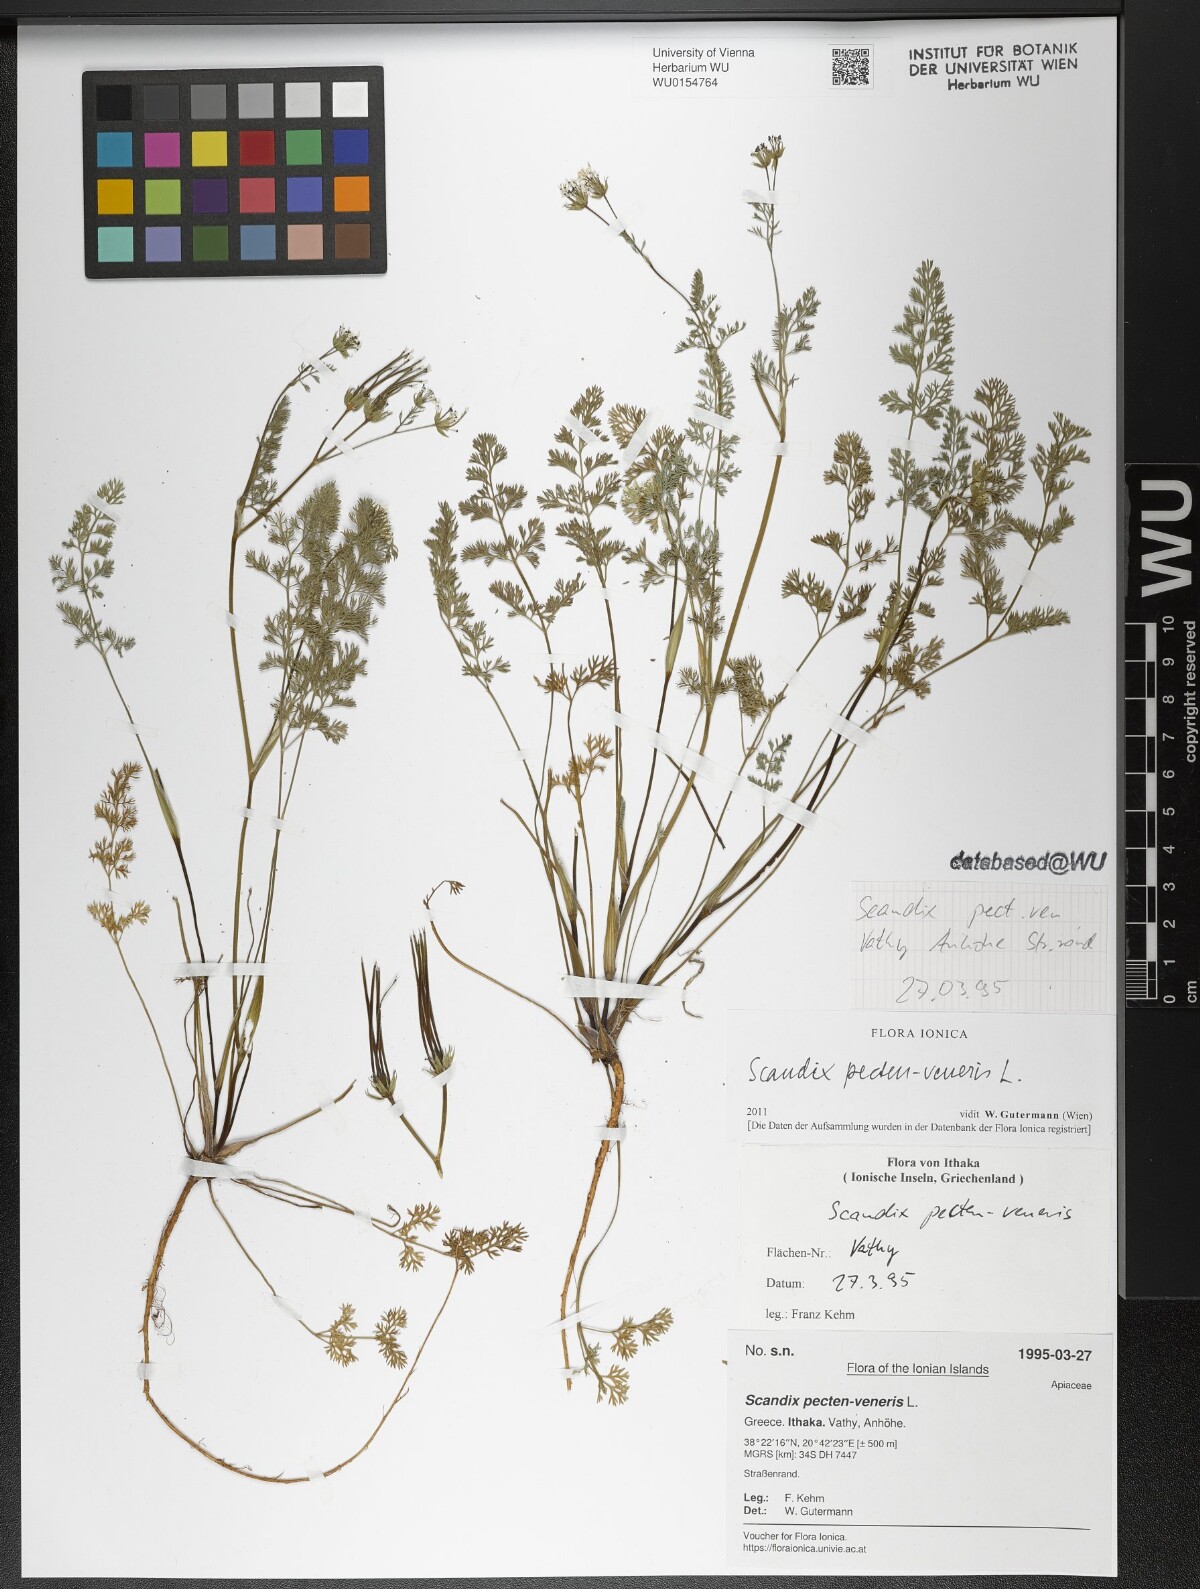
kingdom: Plantae
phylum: Tracheophyta
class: Magnoliopsida
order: Apiales
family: Apiaceae
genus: Scandix
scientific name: Scandix pecten-veneris
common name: Shepherd's-needle
